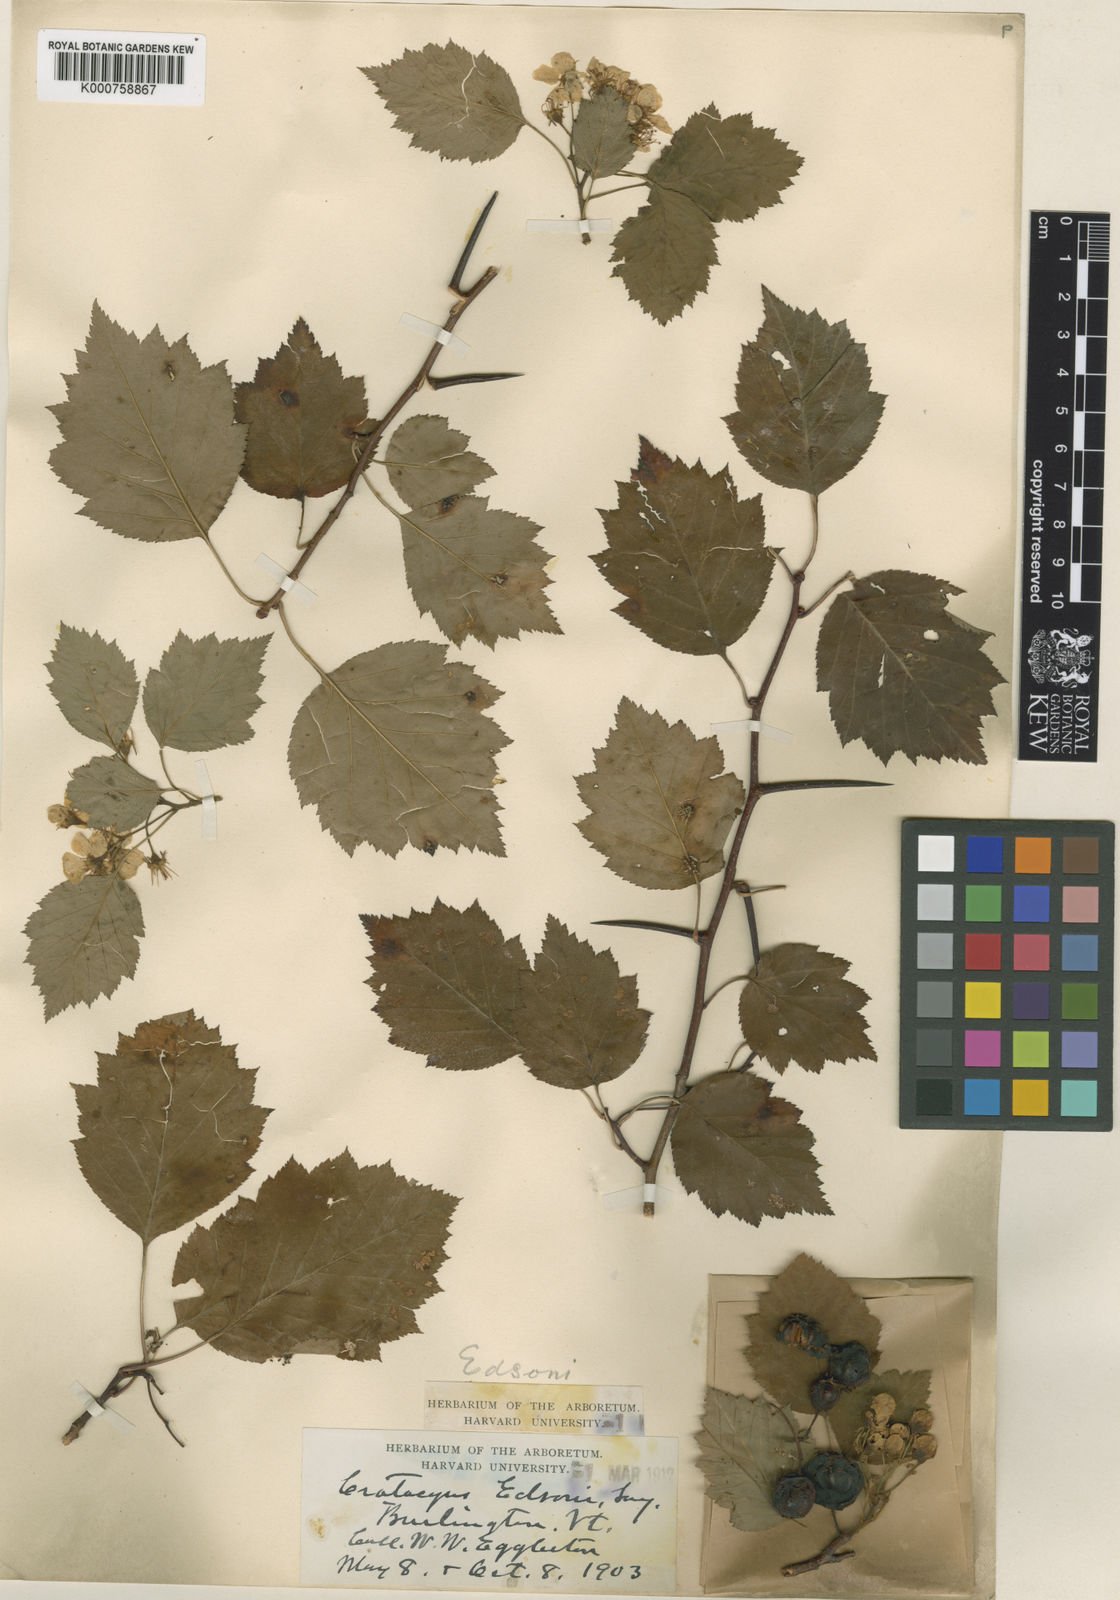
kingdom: Plantae
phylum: Tracheophyta
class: Magnoliopsida
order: Rosales
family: Rosaceae
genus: Crataegus
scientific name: Crataegus
